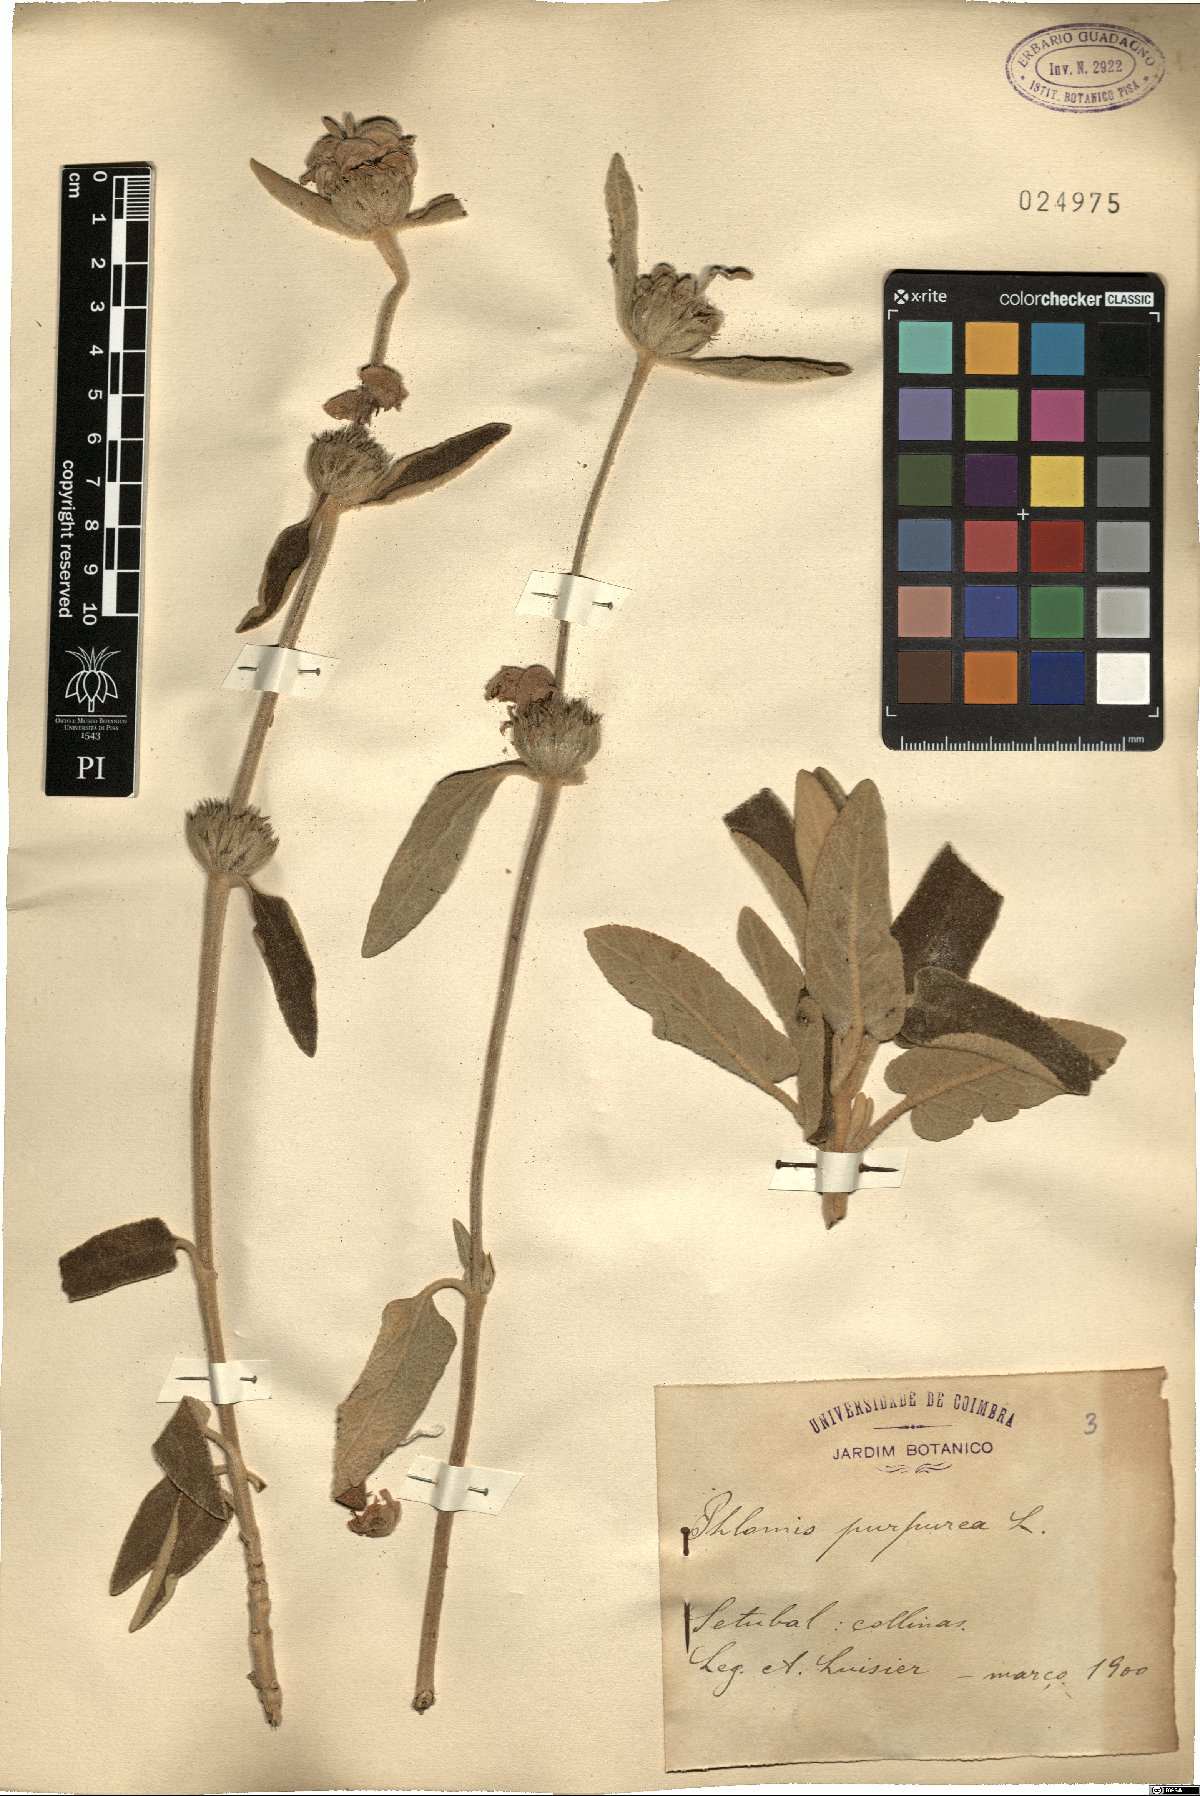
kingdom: Plantae
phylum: Tracheophyta
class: Magnoliopsida
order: Lamiales
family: Lamiaceae
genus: Phlomis
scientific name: Phlomis purpurea
